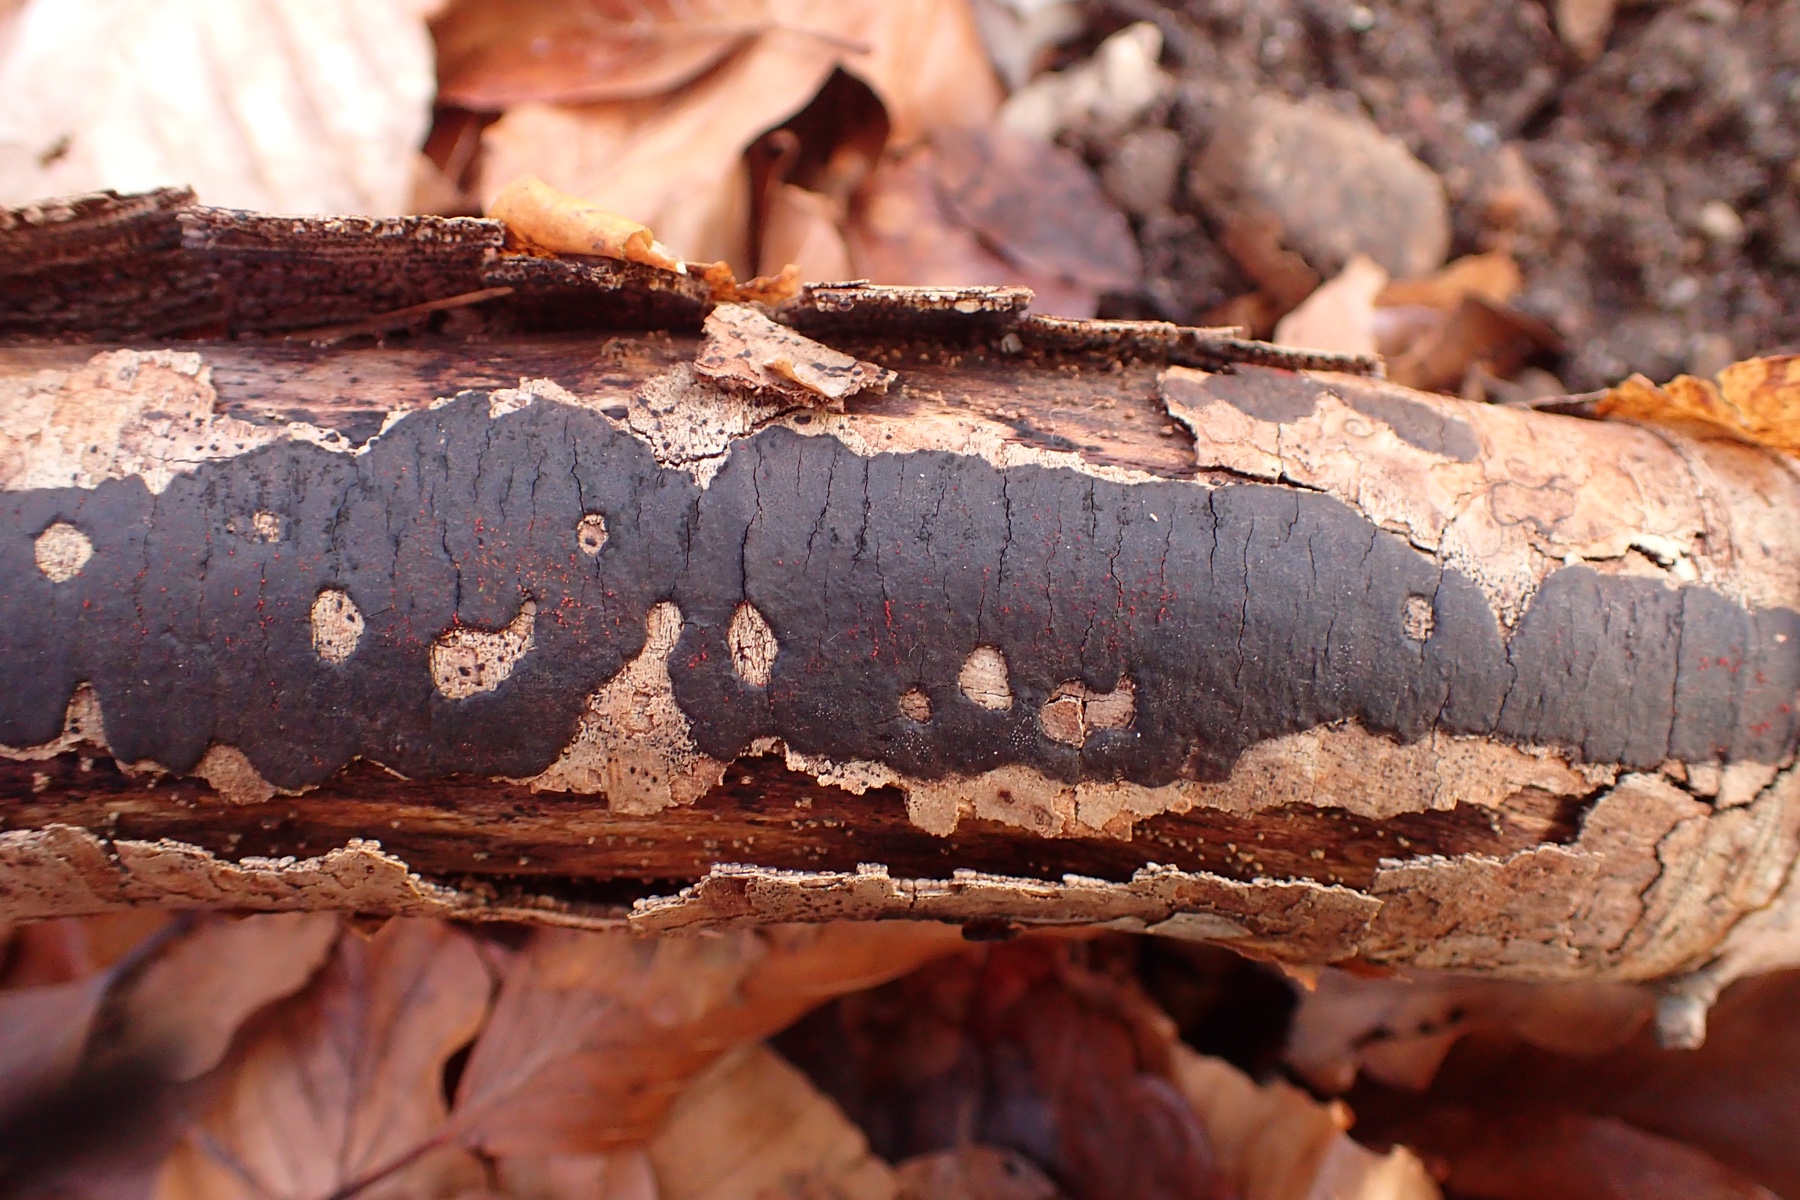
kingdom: Fungi
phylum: Ascomycota
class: Sordariomycetes
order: Xylariales
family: Diatrypaceae
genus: Diatrype
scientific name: Diatrype decorticata
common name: barksprænger-kulskorpe
